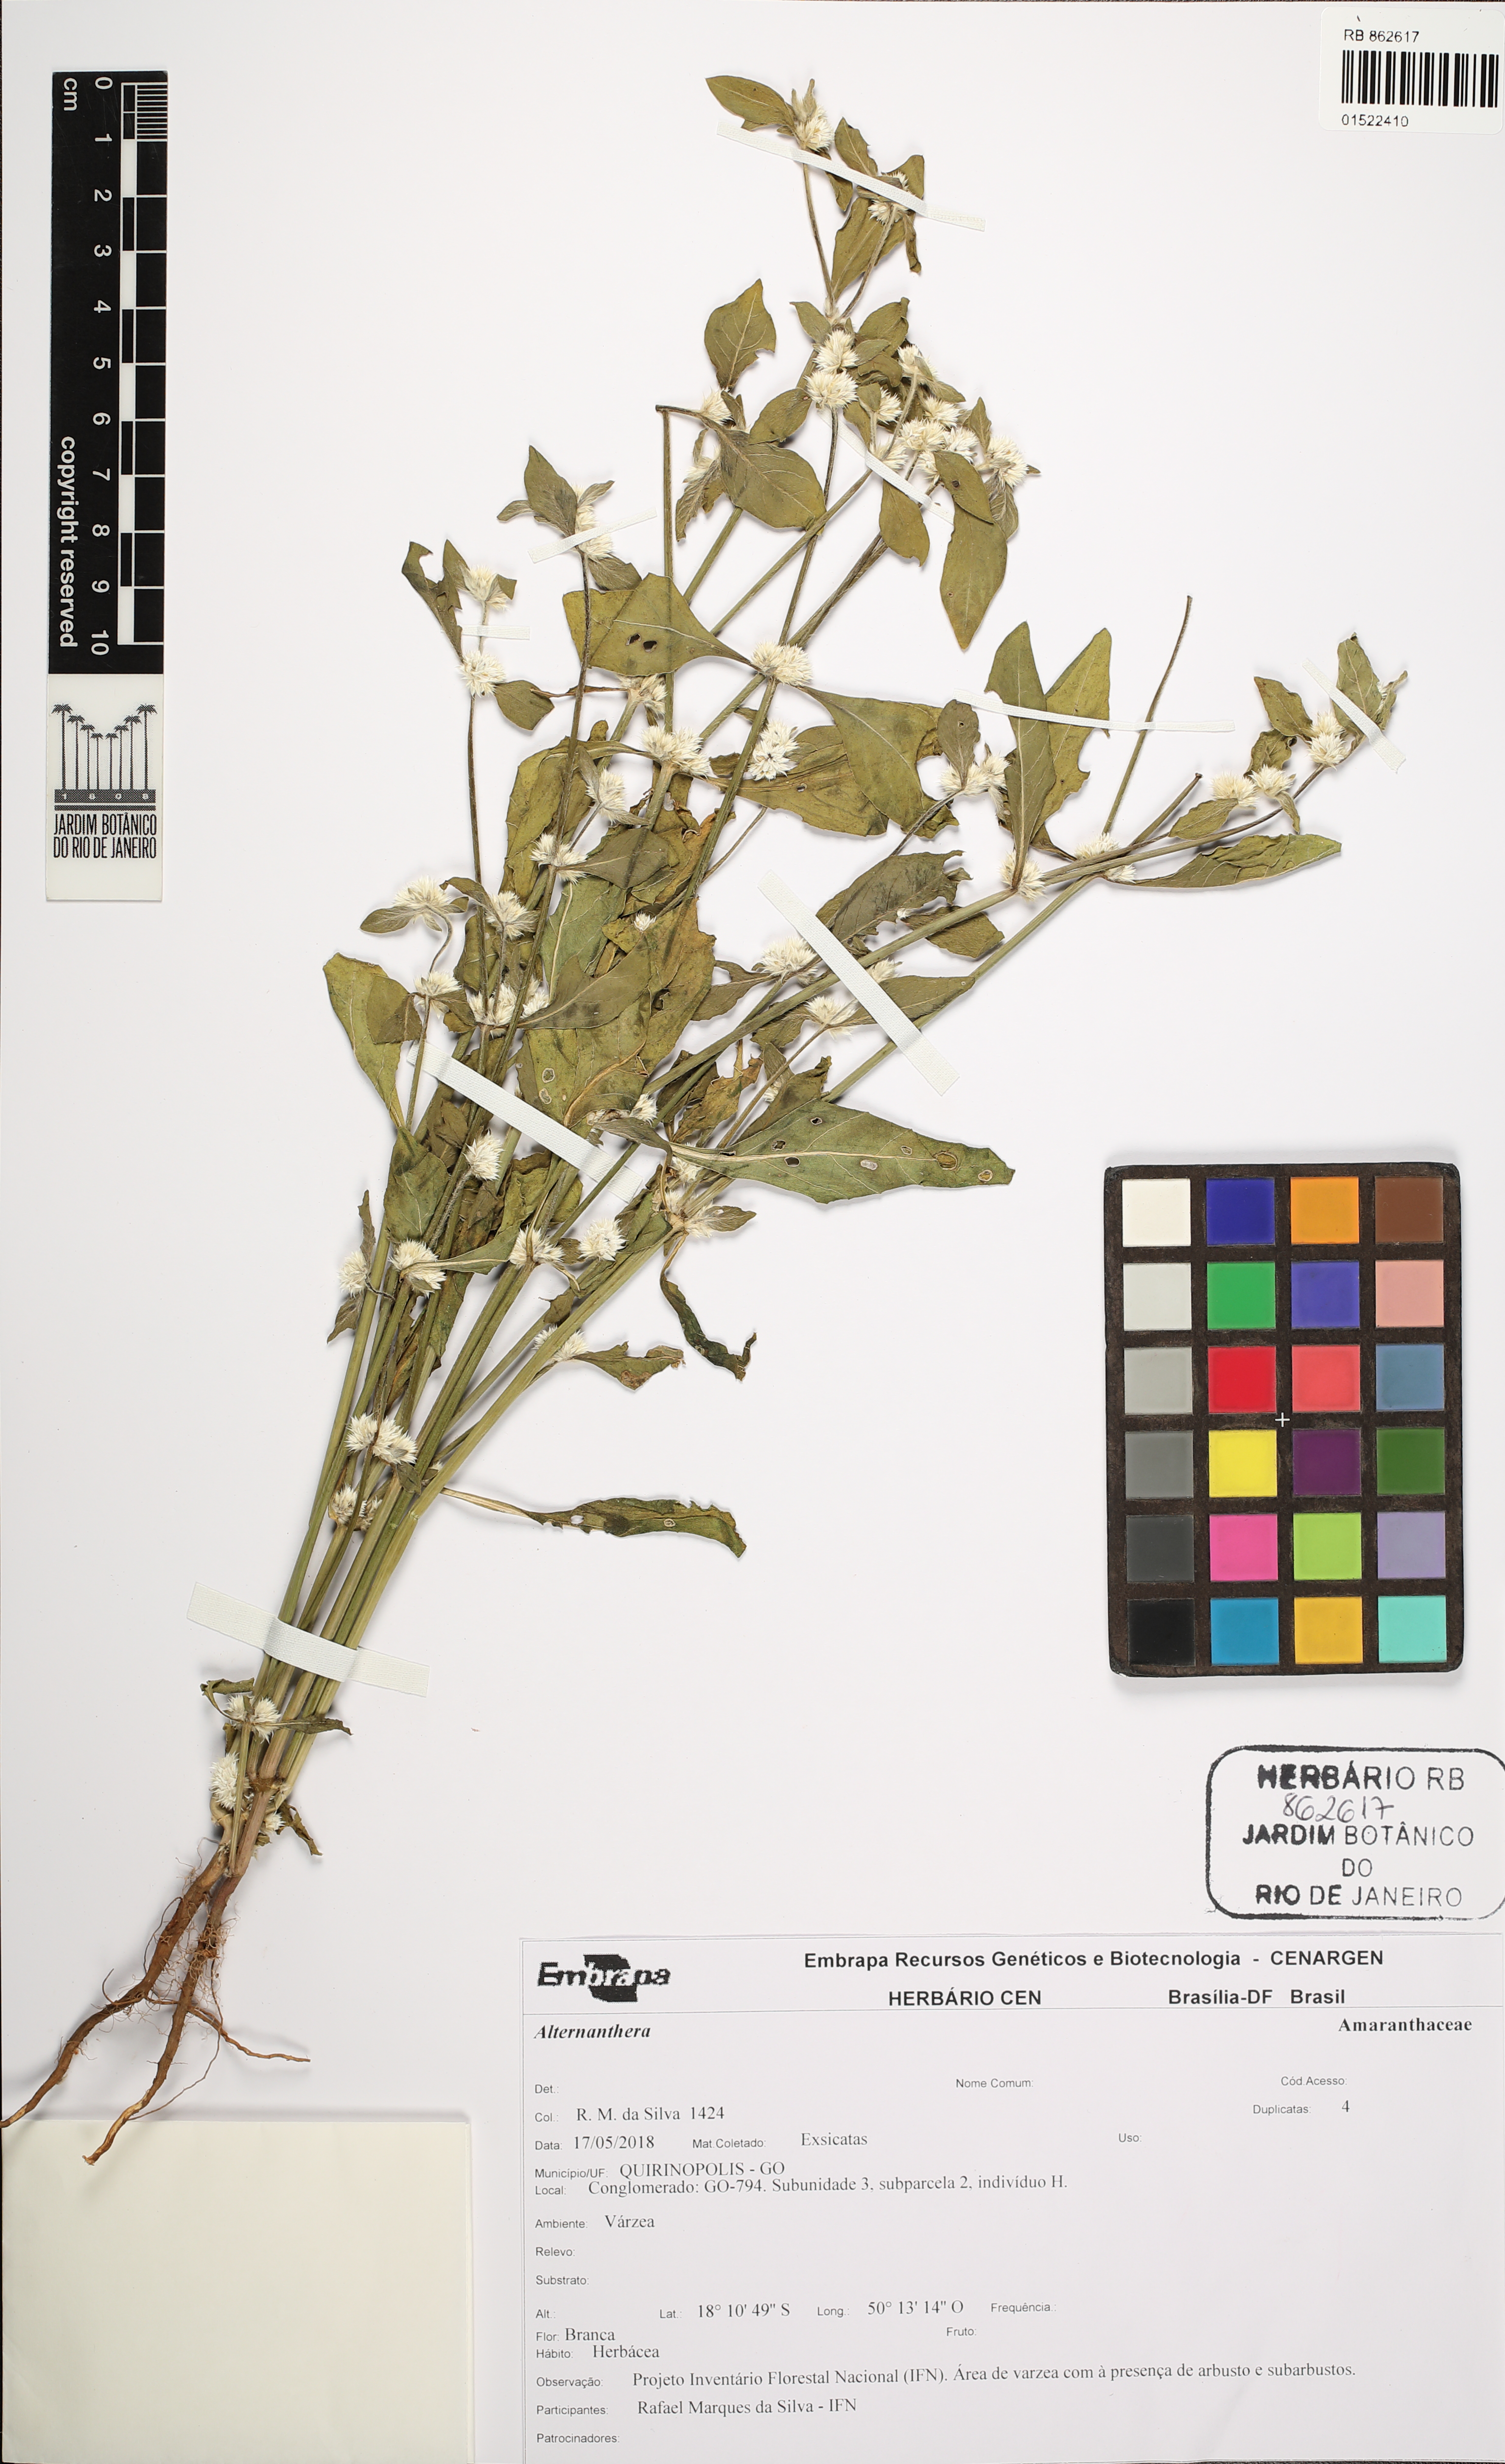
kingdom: Plantae
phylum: Tracheophyta
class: Magnoliopsida
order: Caryophyllales
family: Amaranthaceae
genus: Alternanthera
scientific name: Alternanthera
